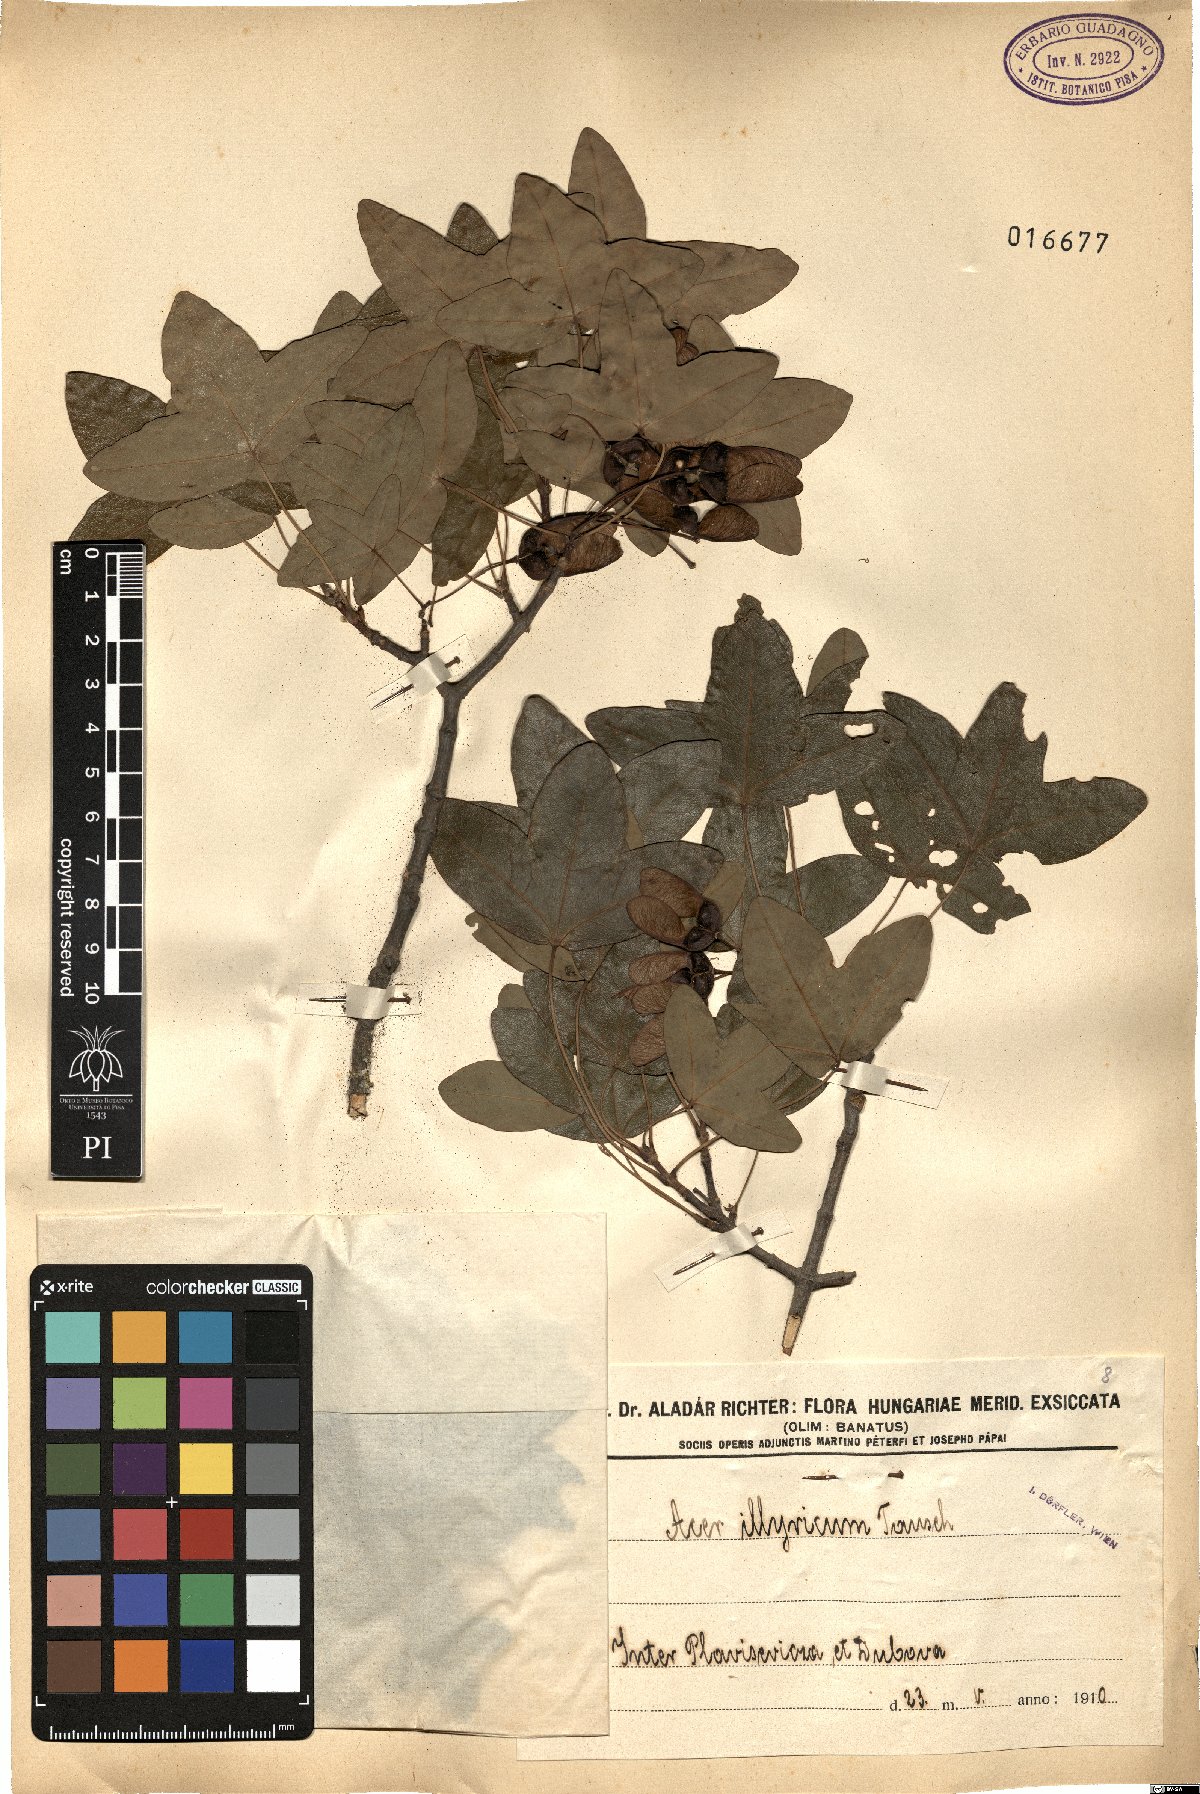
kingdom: Plantae
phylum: Tracheophyta
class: Magnoliopsida
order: Sapindales
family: Sapindaceae
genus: Acer
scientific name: Acer monspessulanum
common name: Montpellier maple
